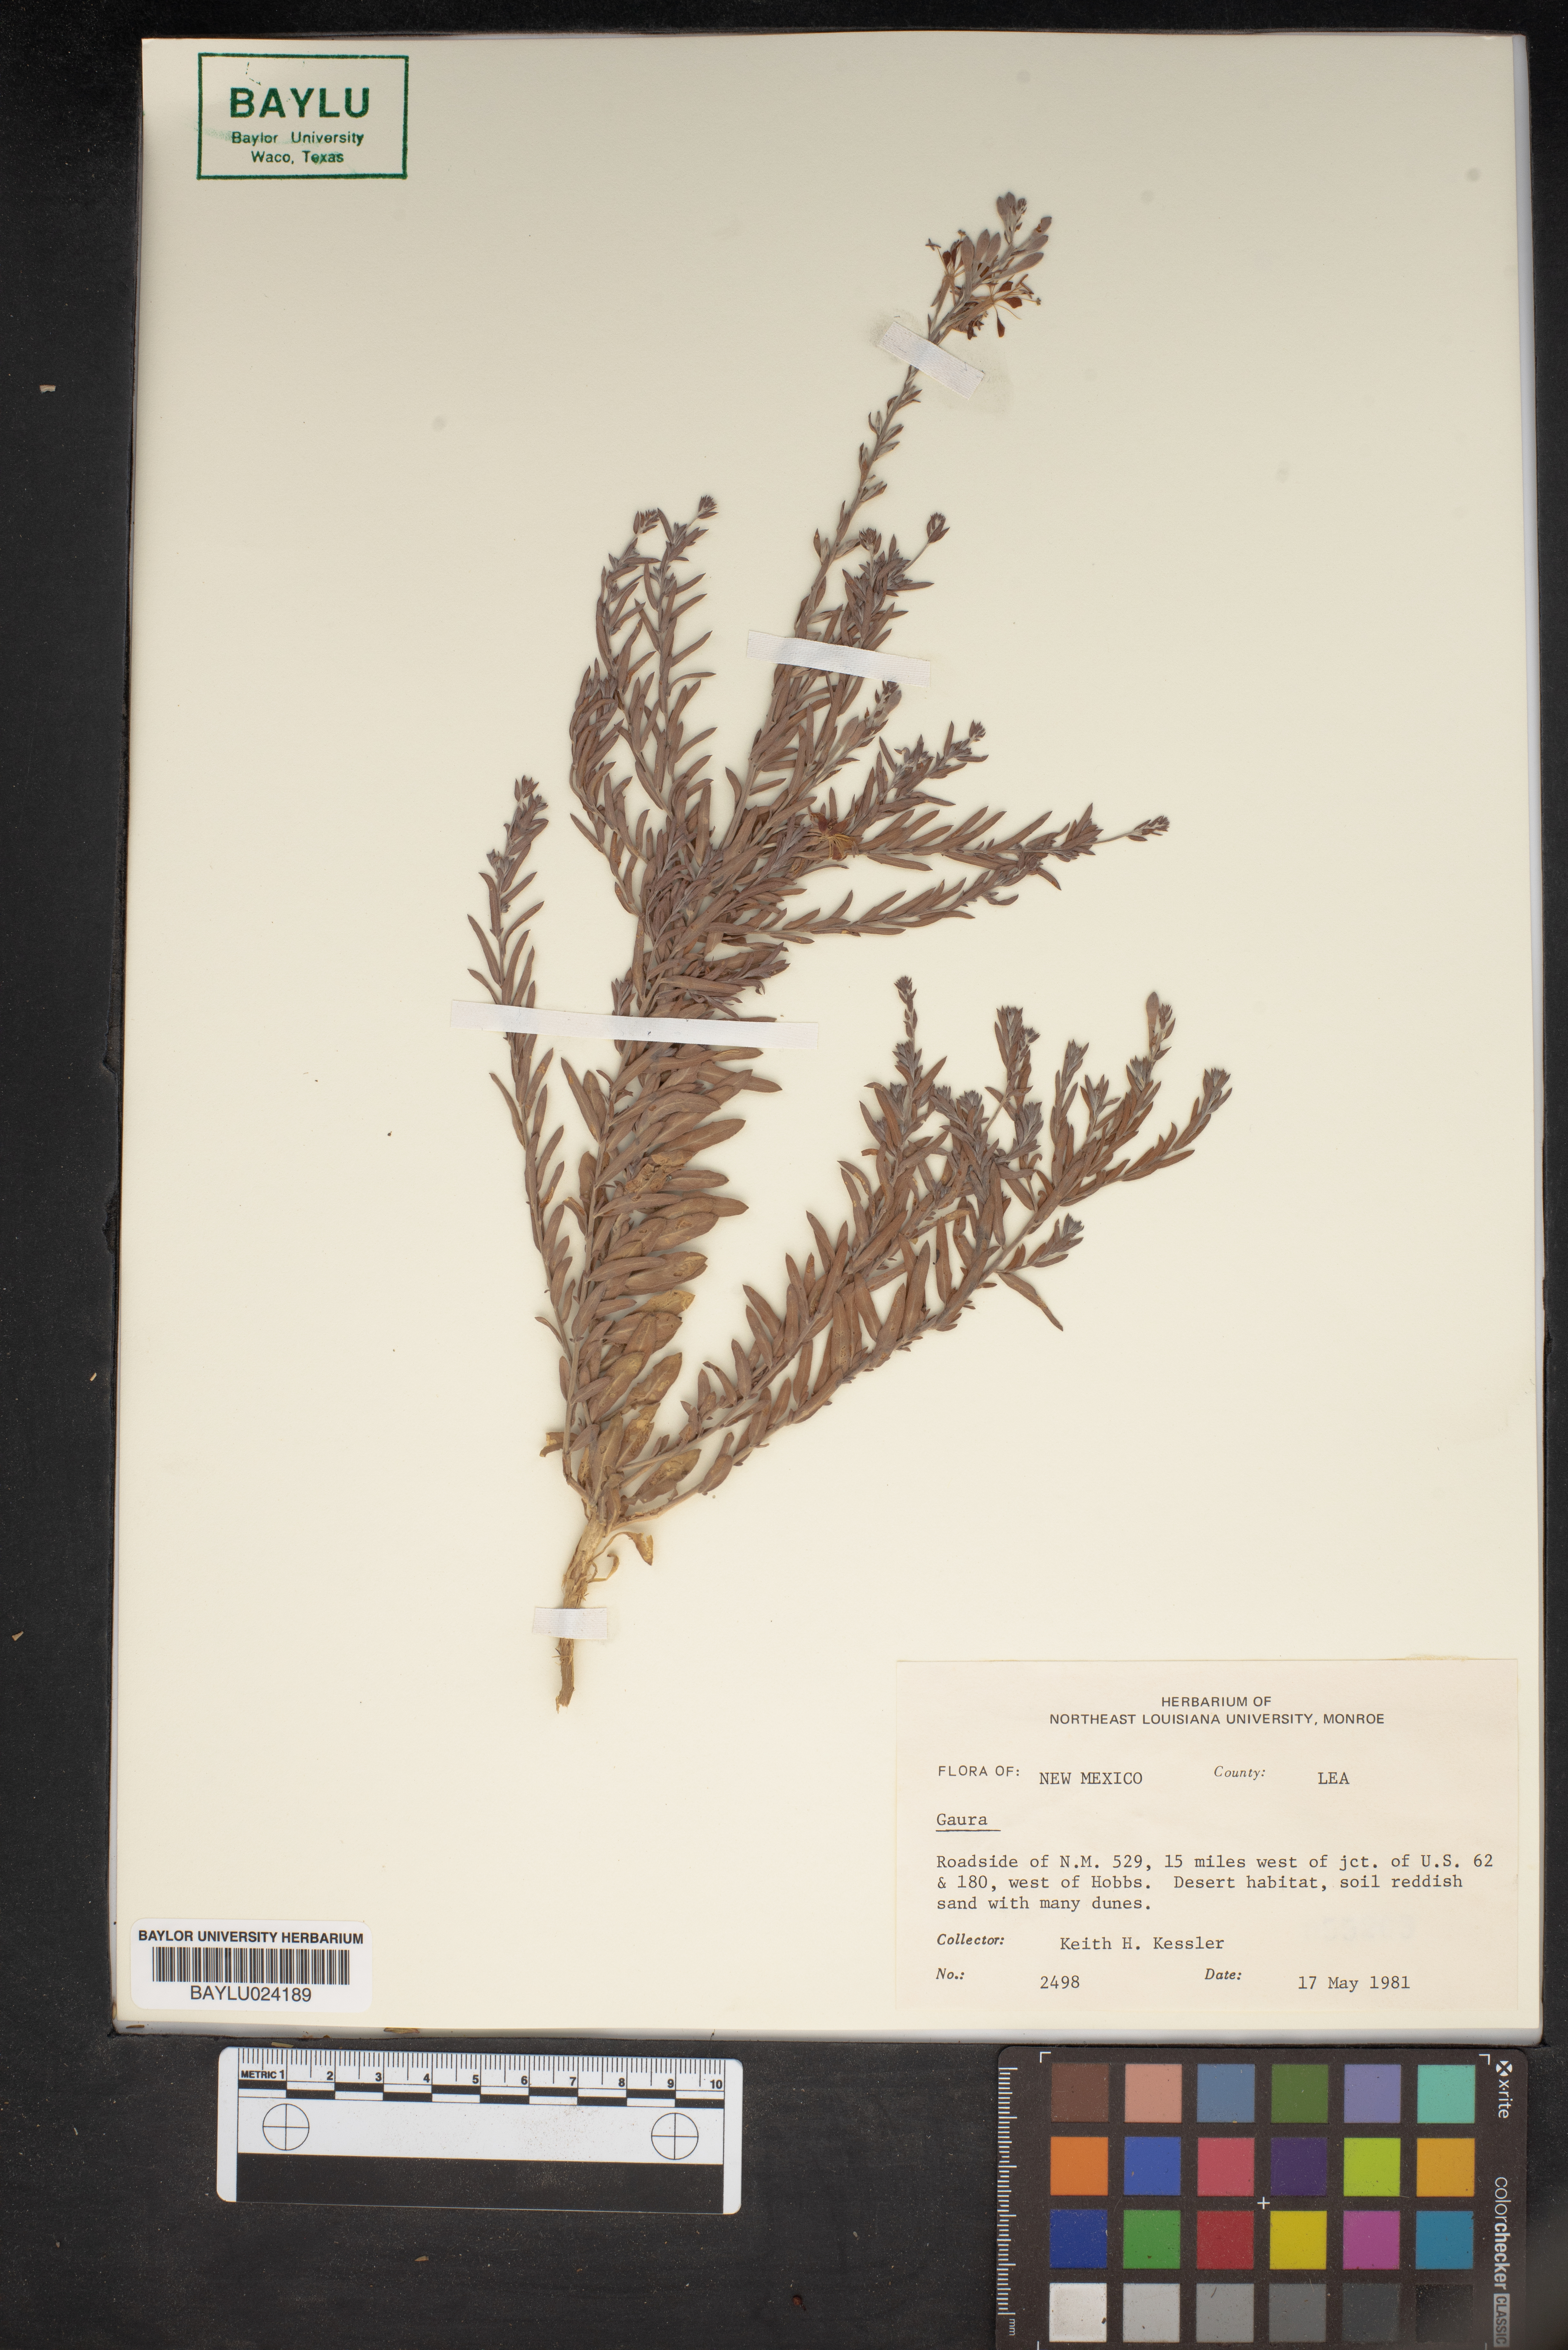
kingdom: Plantae
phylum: Tracheophyta
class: Magnoliopsida
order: Myrtales
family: Onagraceae
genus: Oenothera
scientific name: Oenothera
